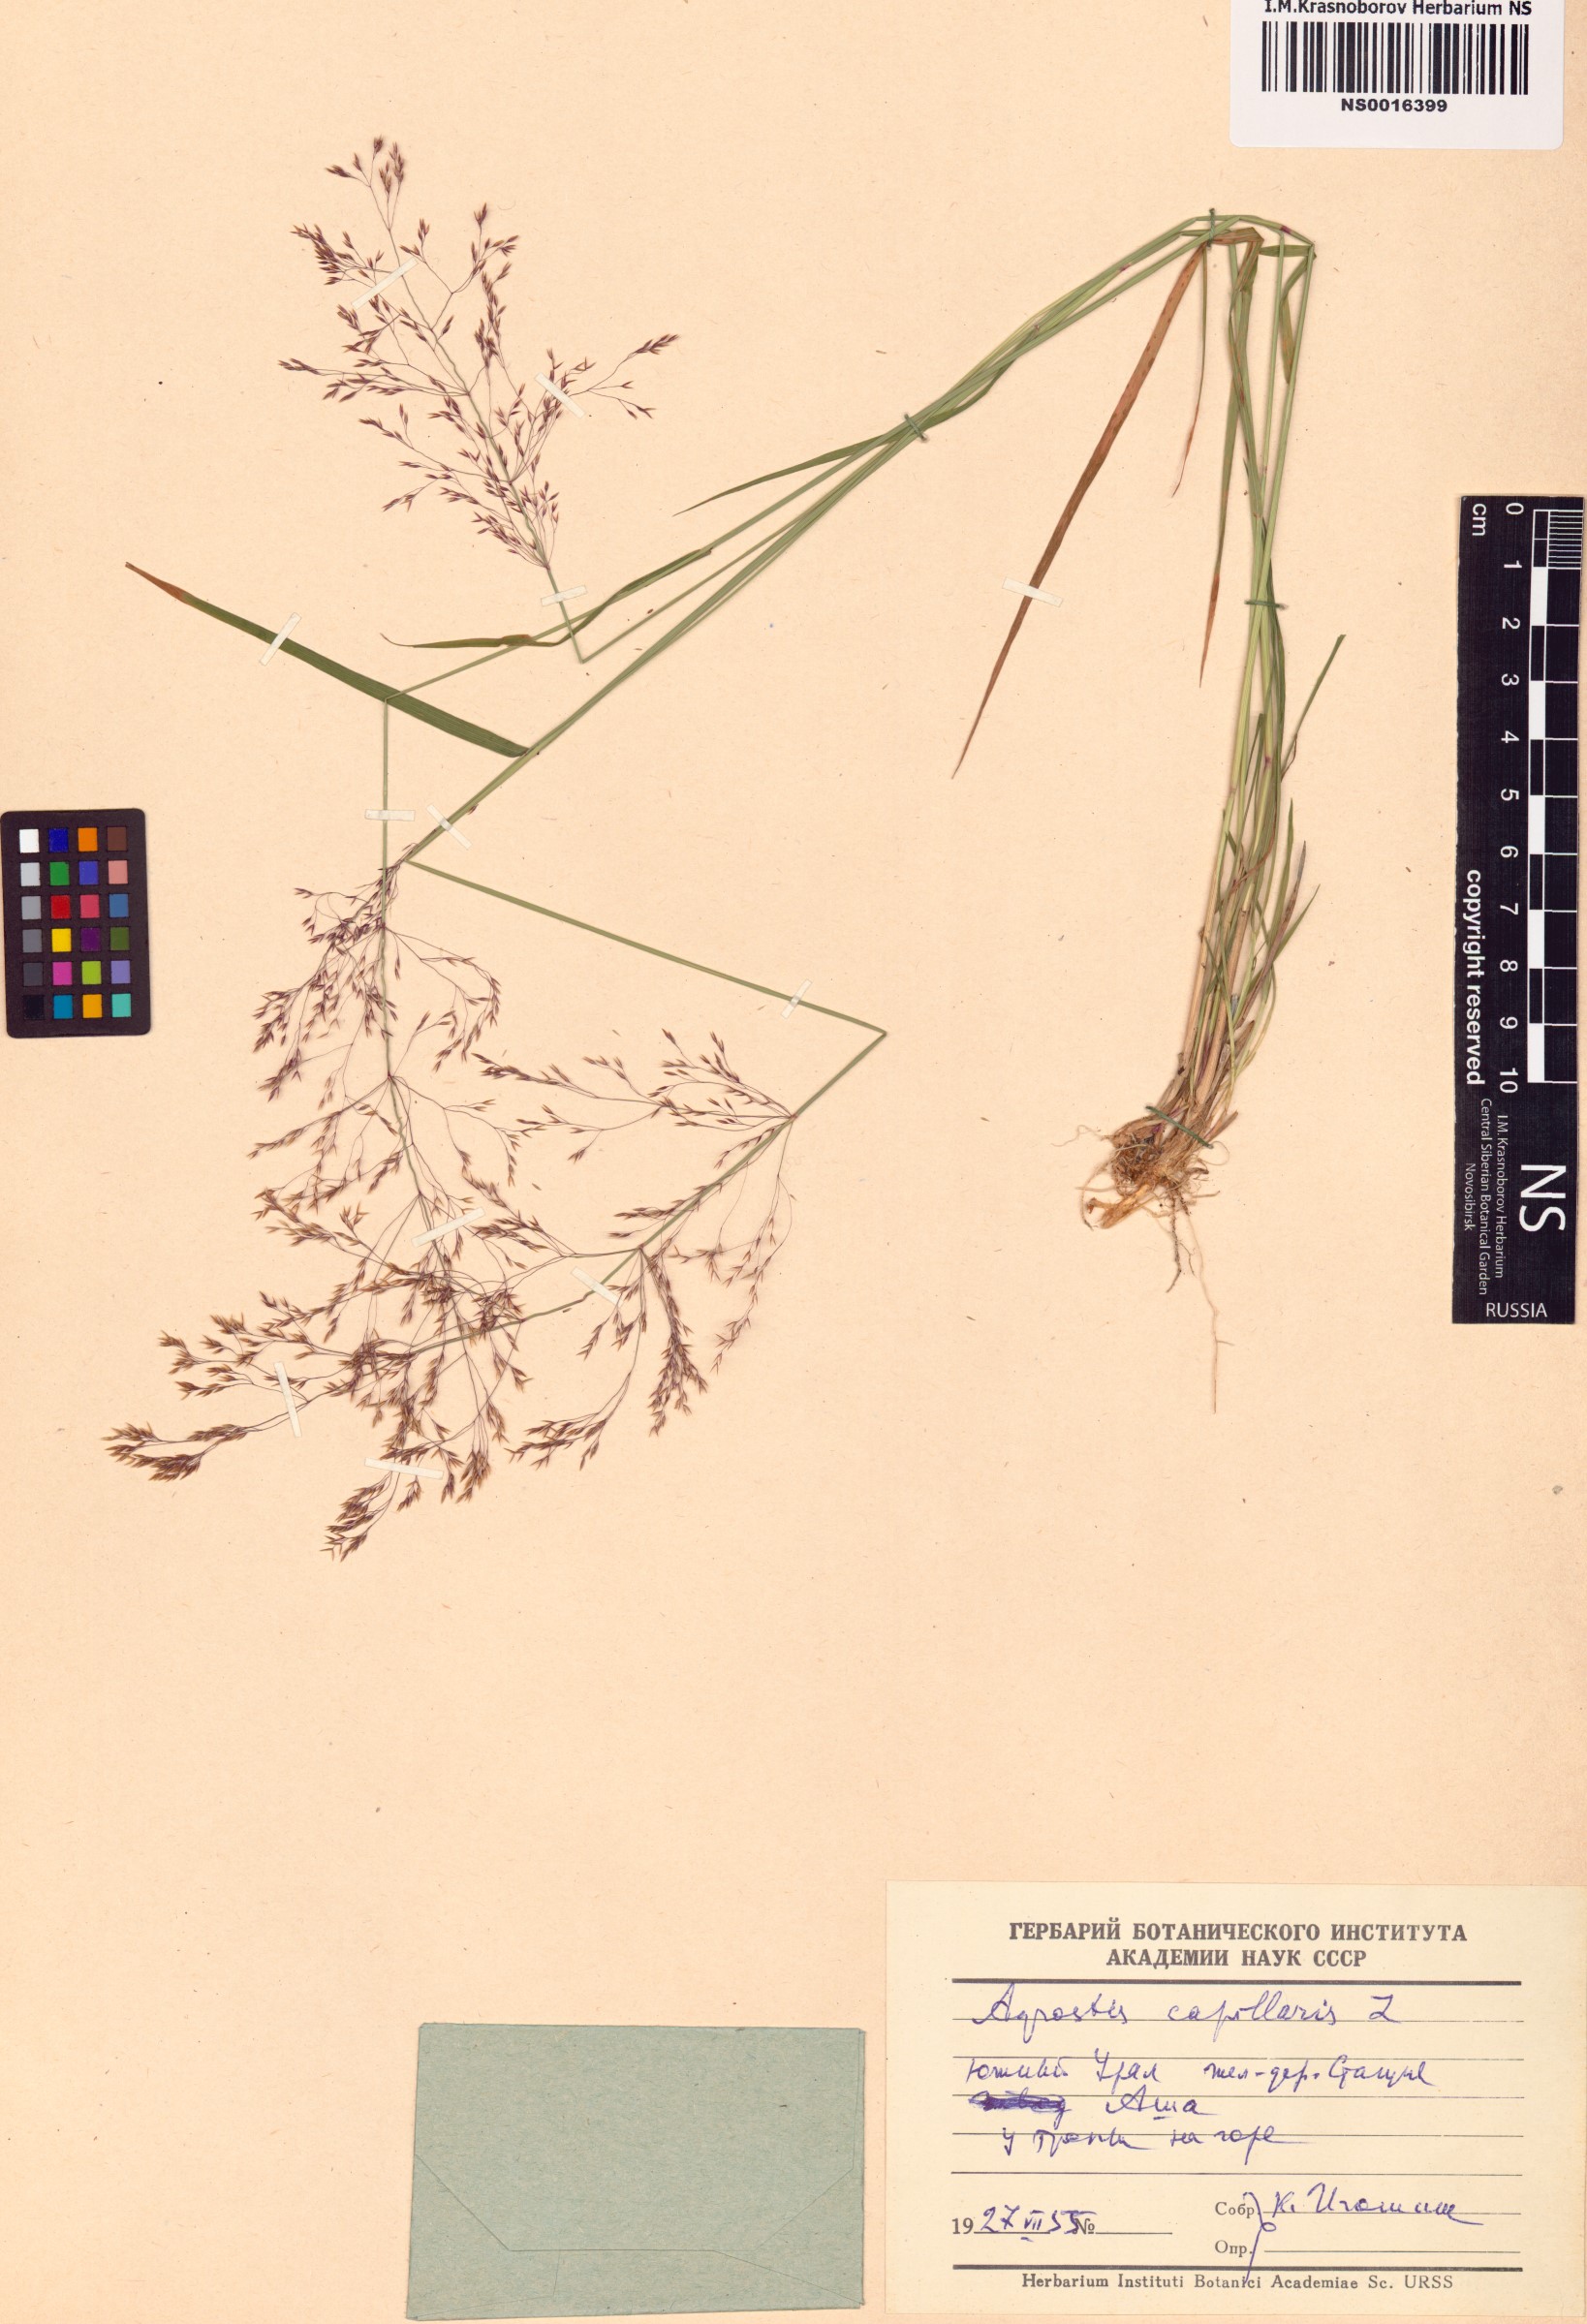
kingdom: Plantae
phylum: Tracheophyta
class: Liliopsida
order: Poales
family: Poaceae
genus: Agrostis
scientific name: Agrostis capillaris
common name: Colonial bentgrass
